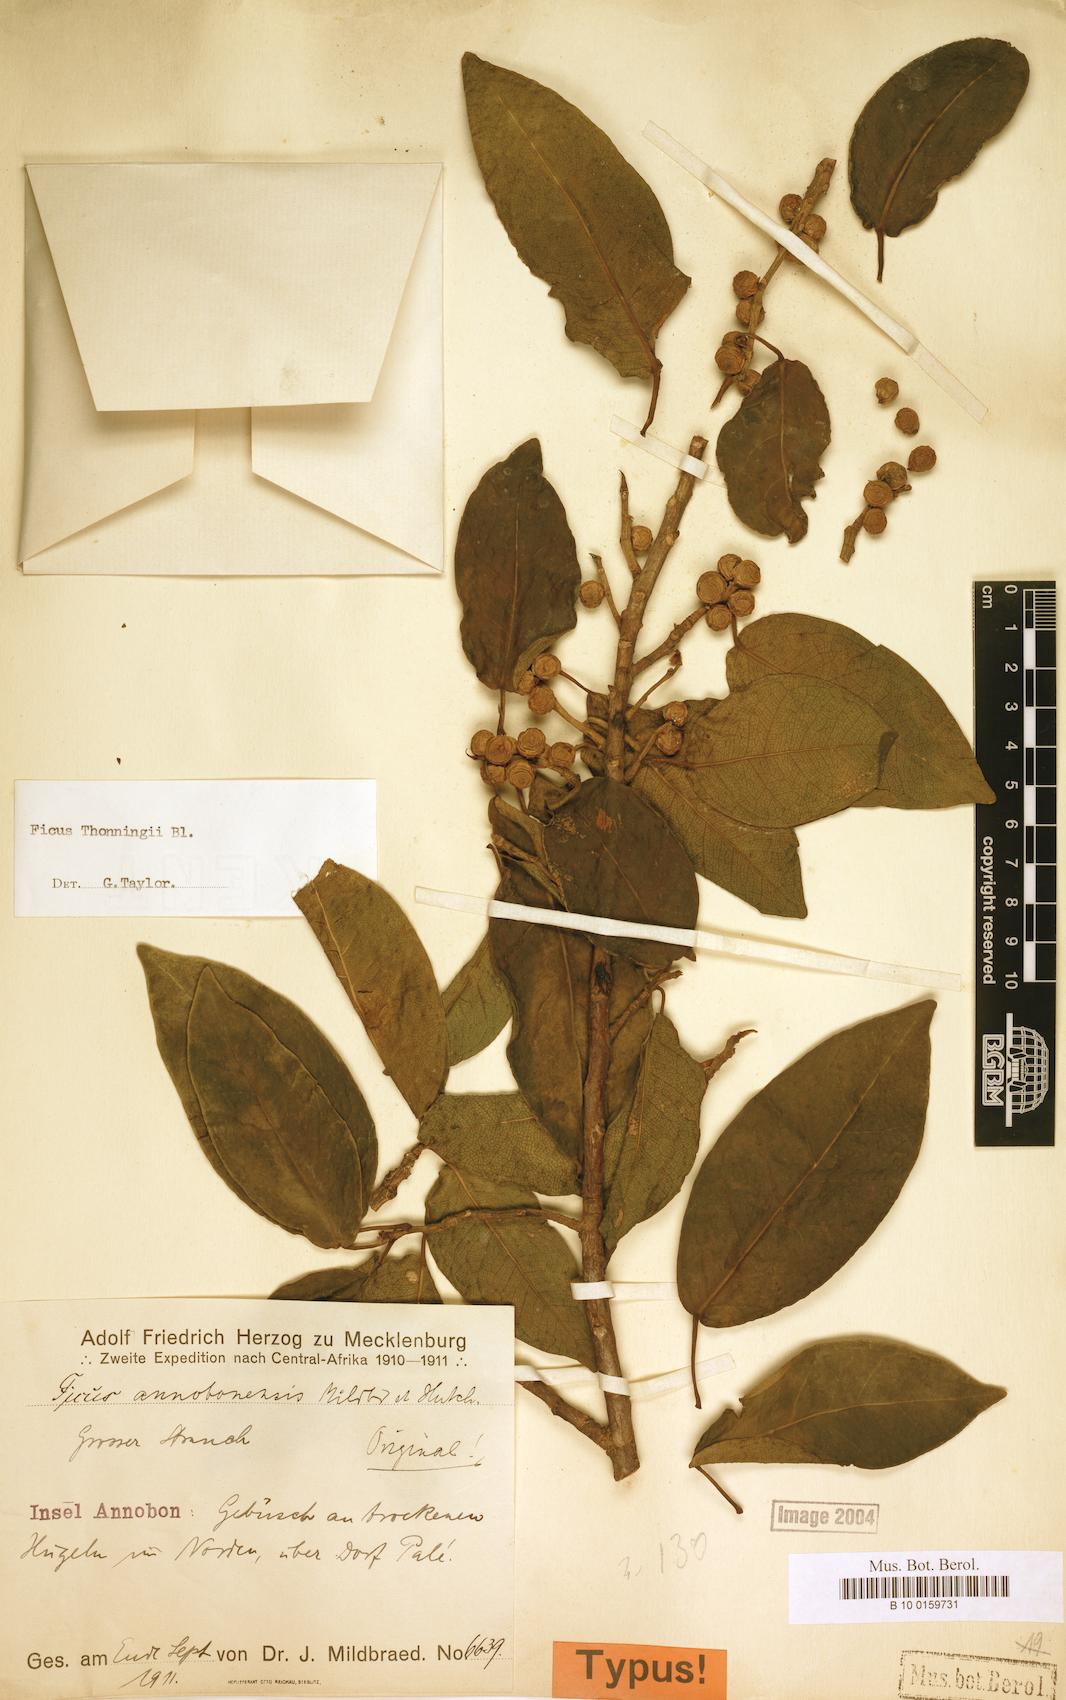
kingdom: Plantae
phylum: Tracheophyta
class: Magnoliopsida
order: Rosales
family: Moraceae
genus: Ficus
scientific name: Ficus thonningii
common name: Fig
